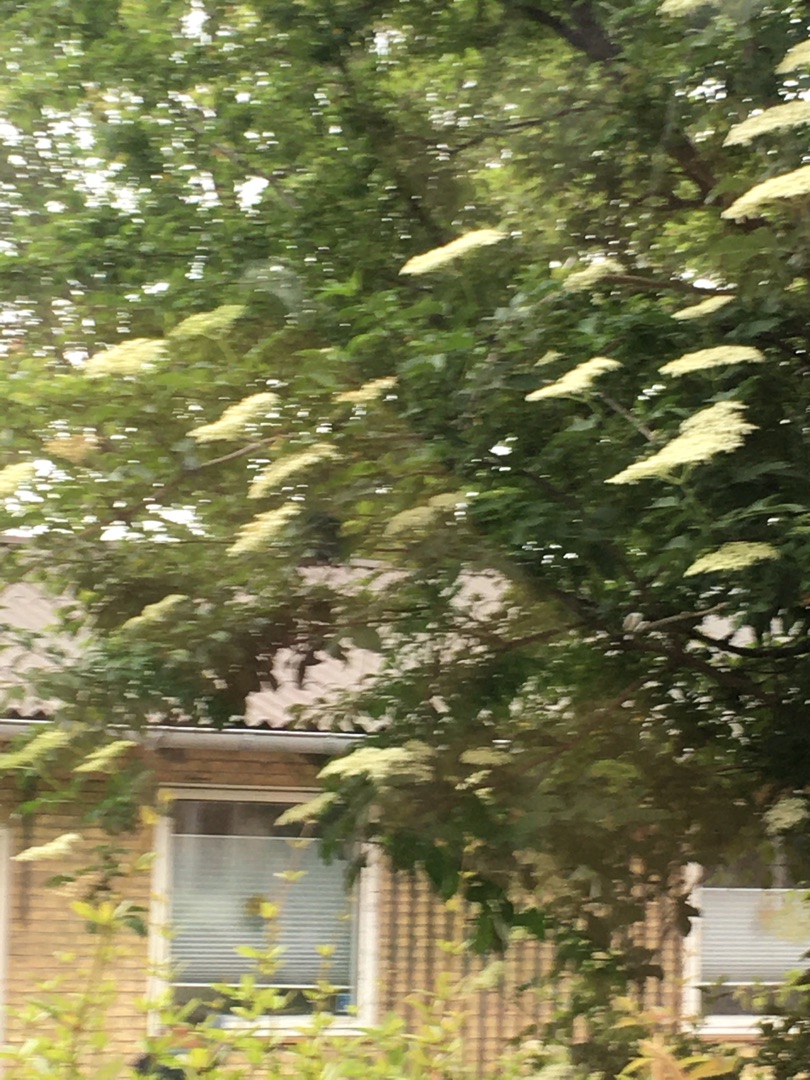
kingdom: Plantae
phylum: Tracheophyta
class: Magnoliopsida
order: Dipsacales
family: Viburnaceae
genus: Sambucus
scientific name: Sambucus nigra
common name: Almindelig hyld
